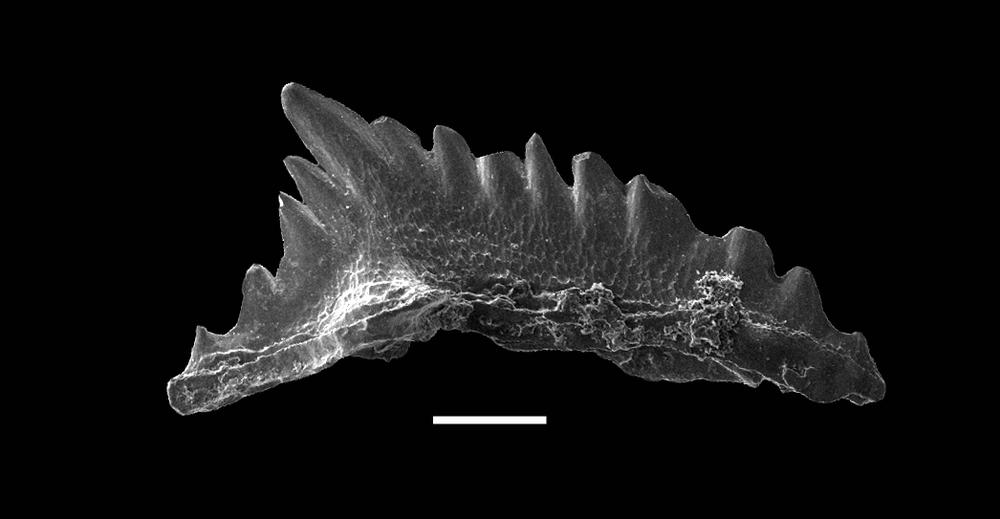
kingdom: Animalia
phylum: Chordata
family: Pterospathodontidae
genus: Astropentagnathus
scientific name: Astropentagnathus irregularis
